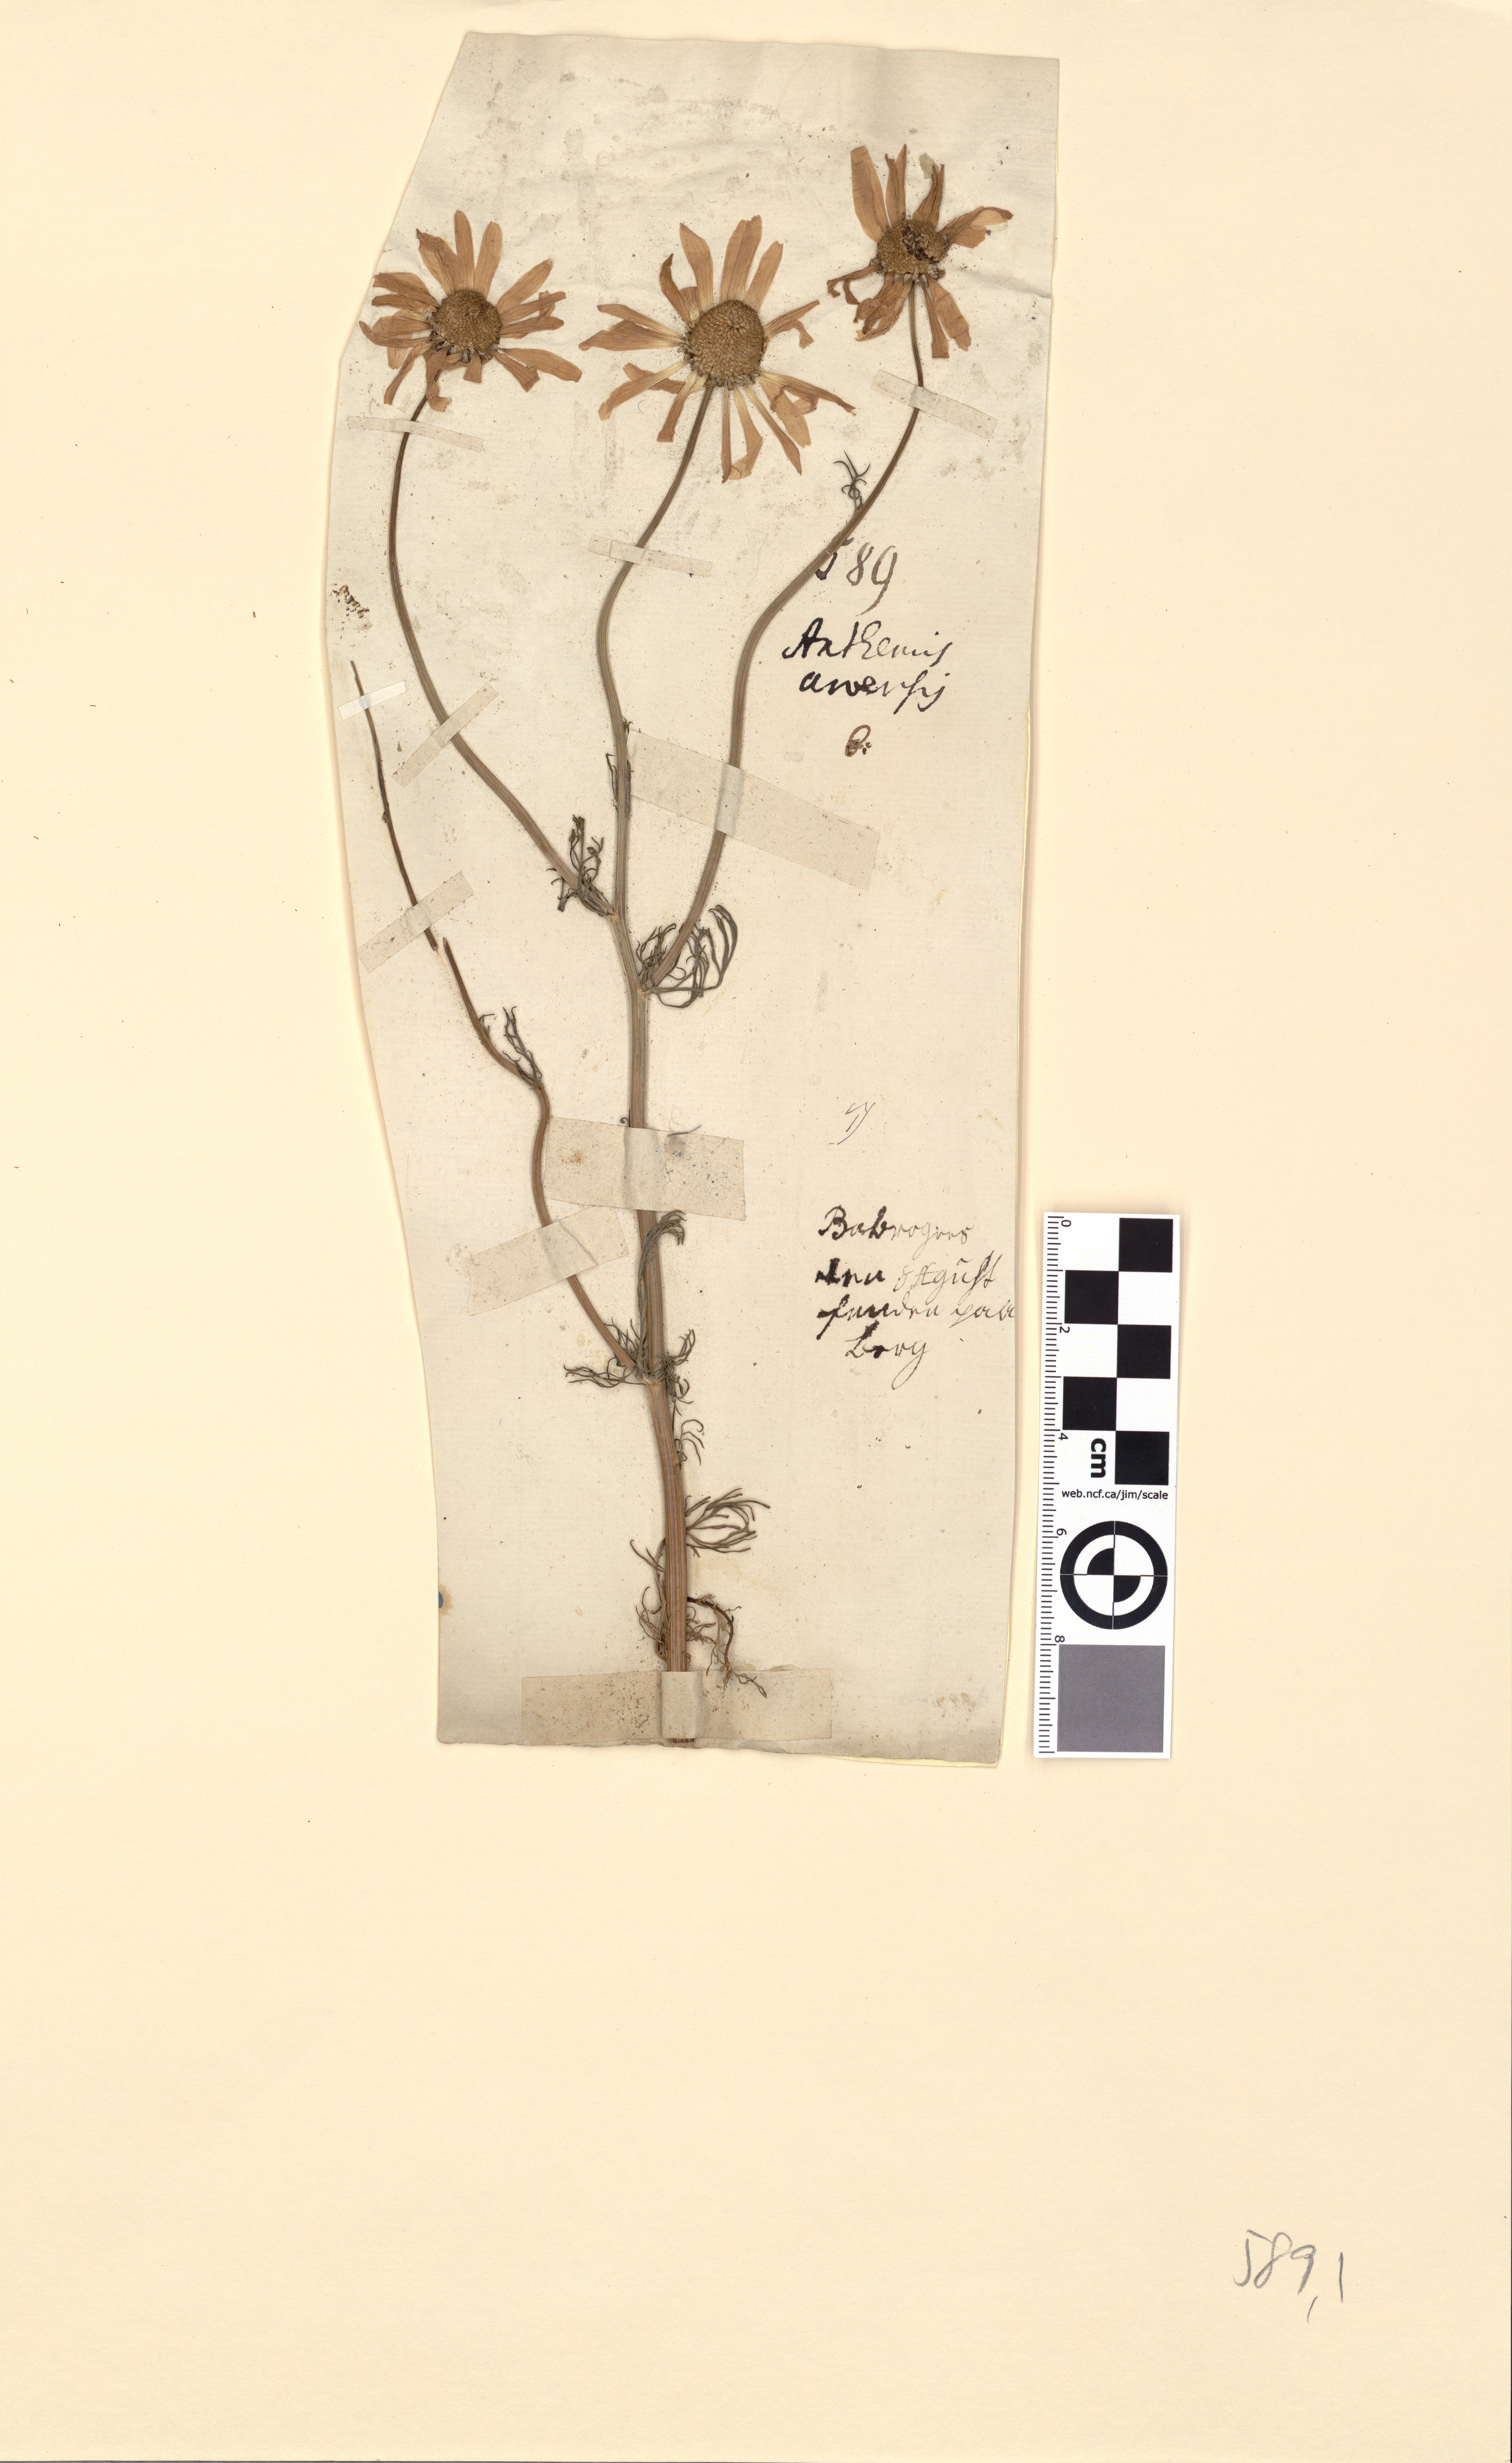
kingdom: Plantae
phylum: Tracheophyta
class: Magnoliopsida
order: Asterales
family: Asteraceae
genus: Tripleurospermum
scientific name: Tripleurospermum inodorum
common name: Scentless mayweed
